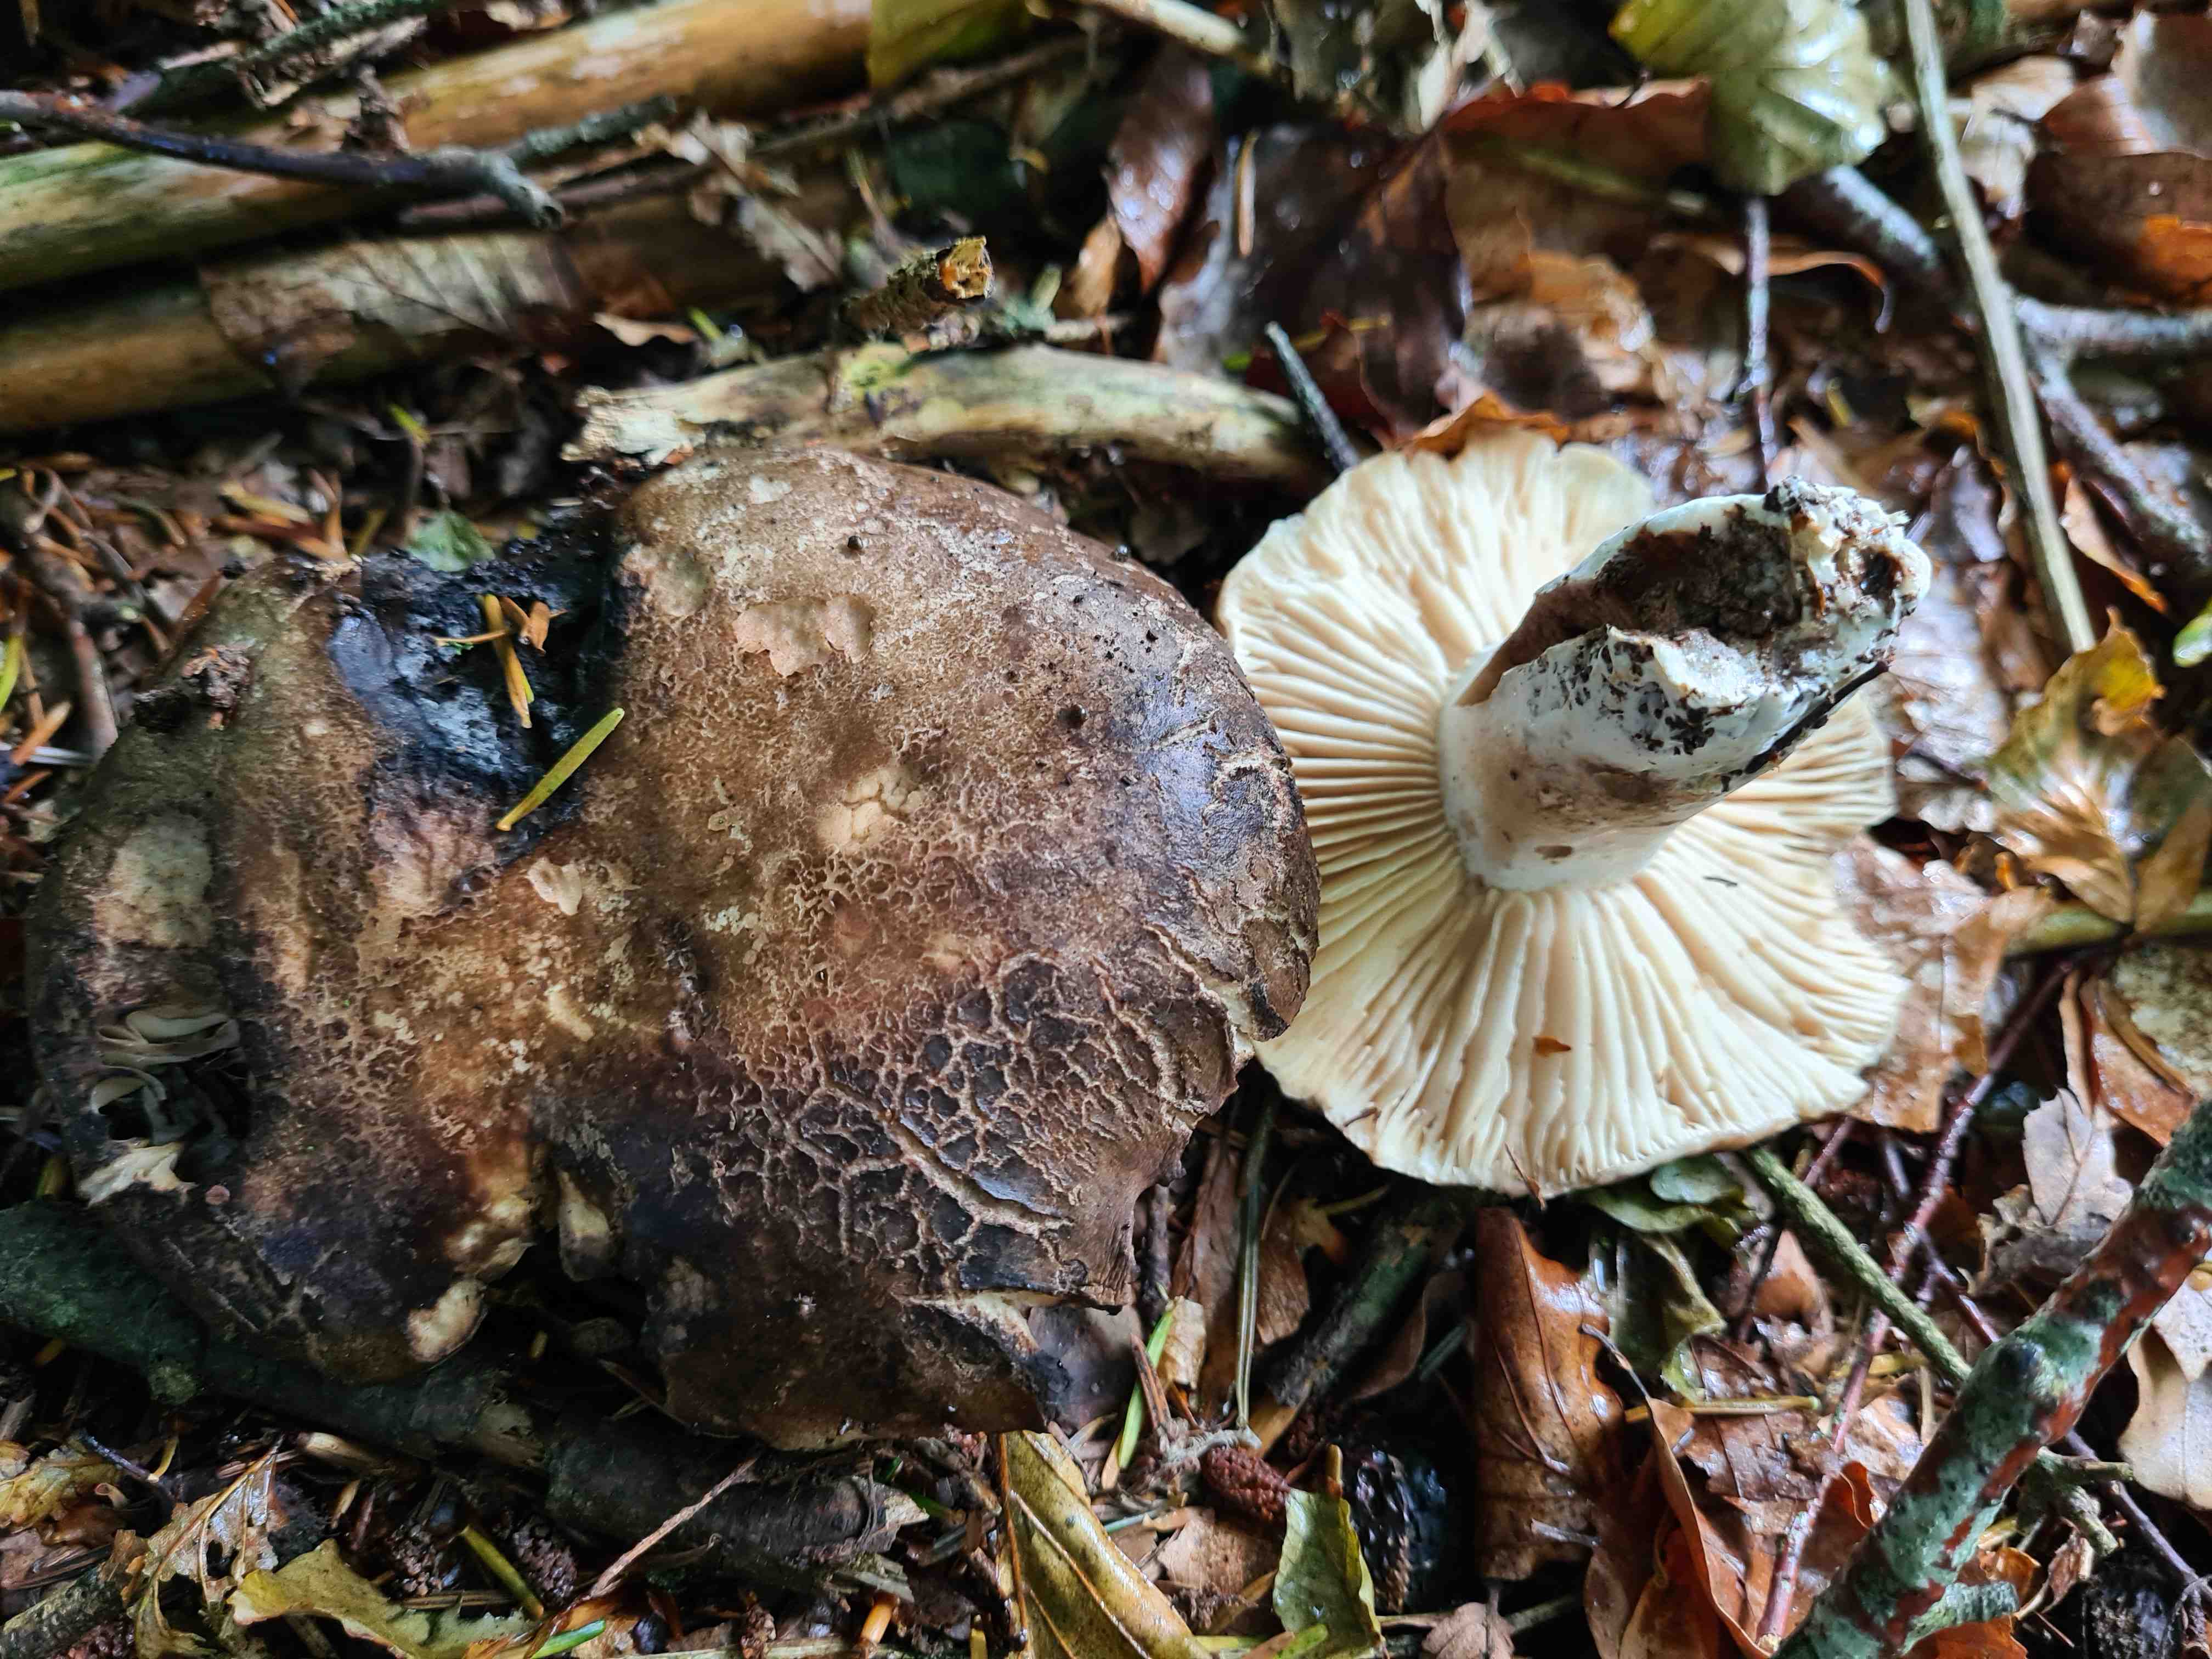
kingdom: Fungi
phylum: Basidiomycota
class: Agaricomycetes
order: Russulales
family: Russulaceae
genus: Russula
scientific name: Russula adusta
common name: sværtende skørhat
